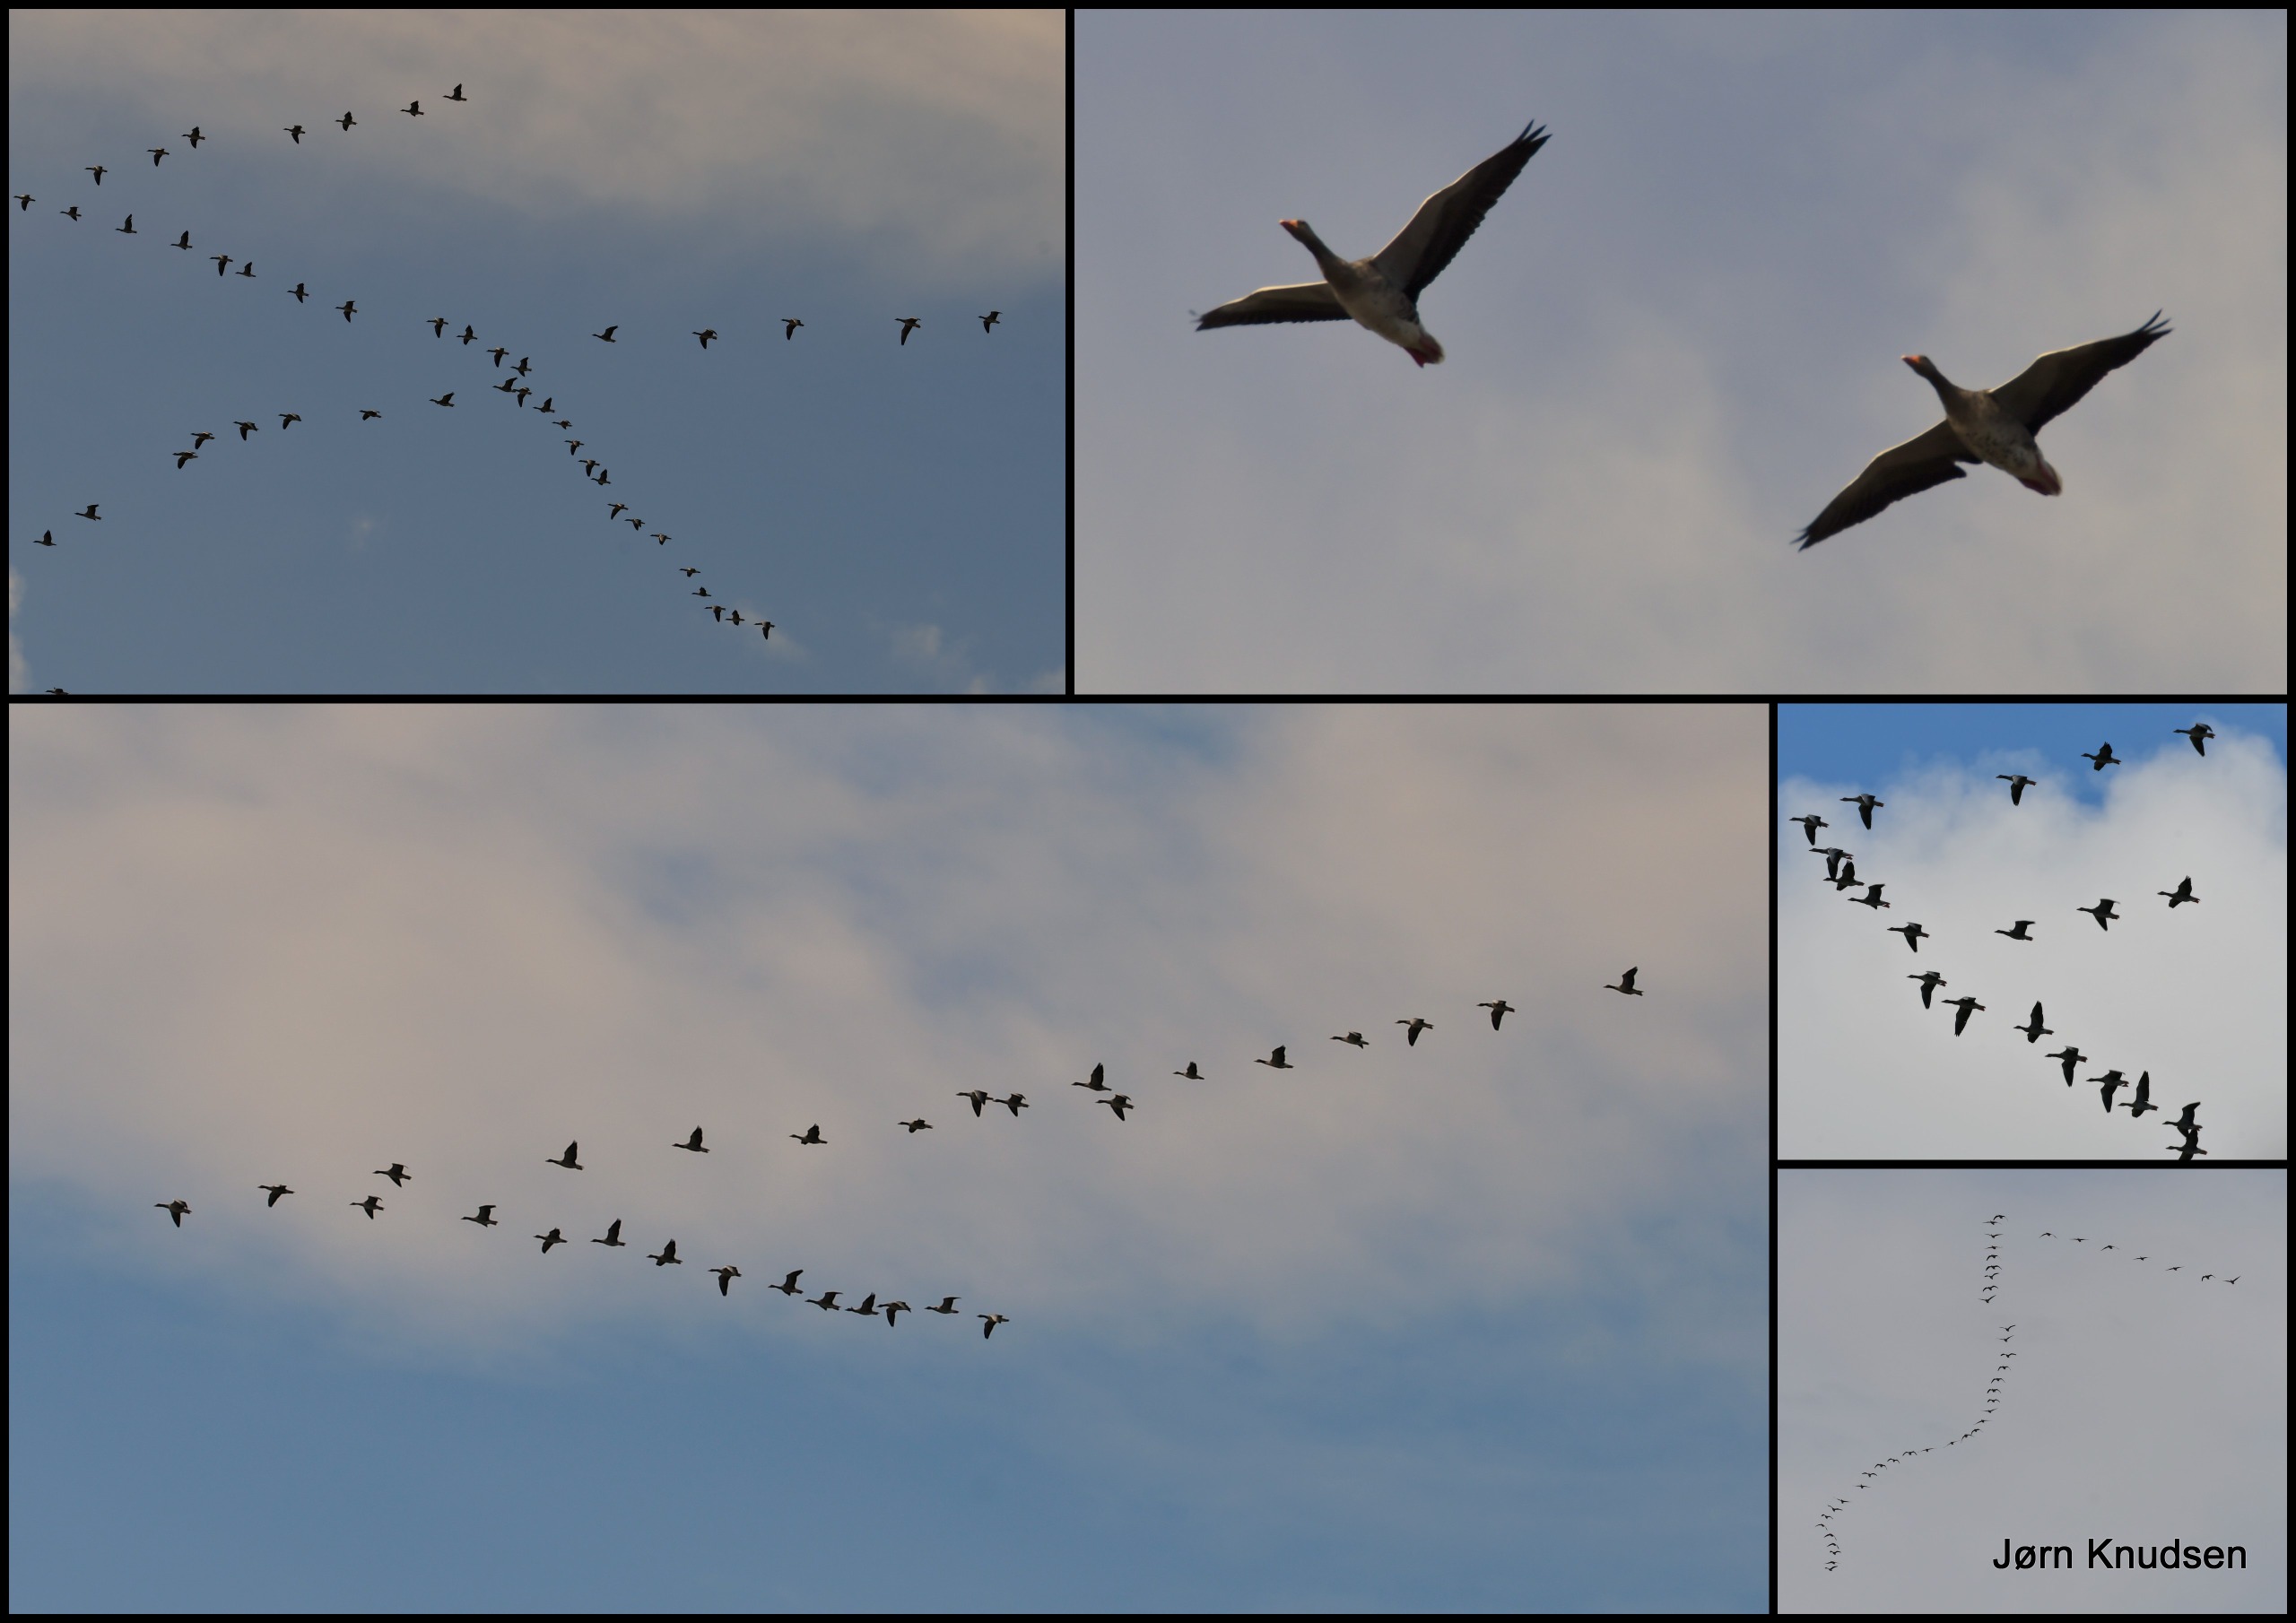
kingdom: Animalia
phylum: Chordata
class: Aves
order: Anseriformes
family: Anatidae
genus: Anser
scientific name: Anser anser
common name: Grågås
